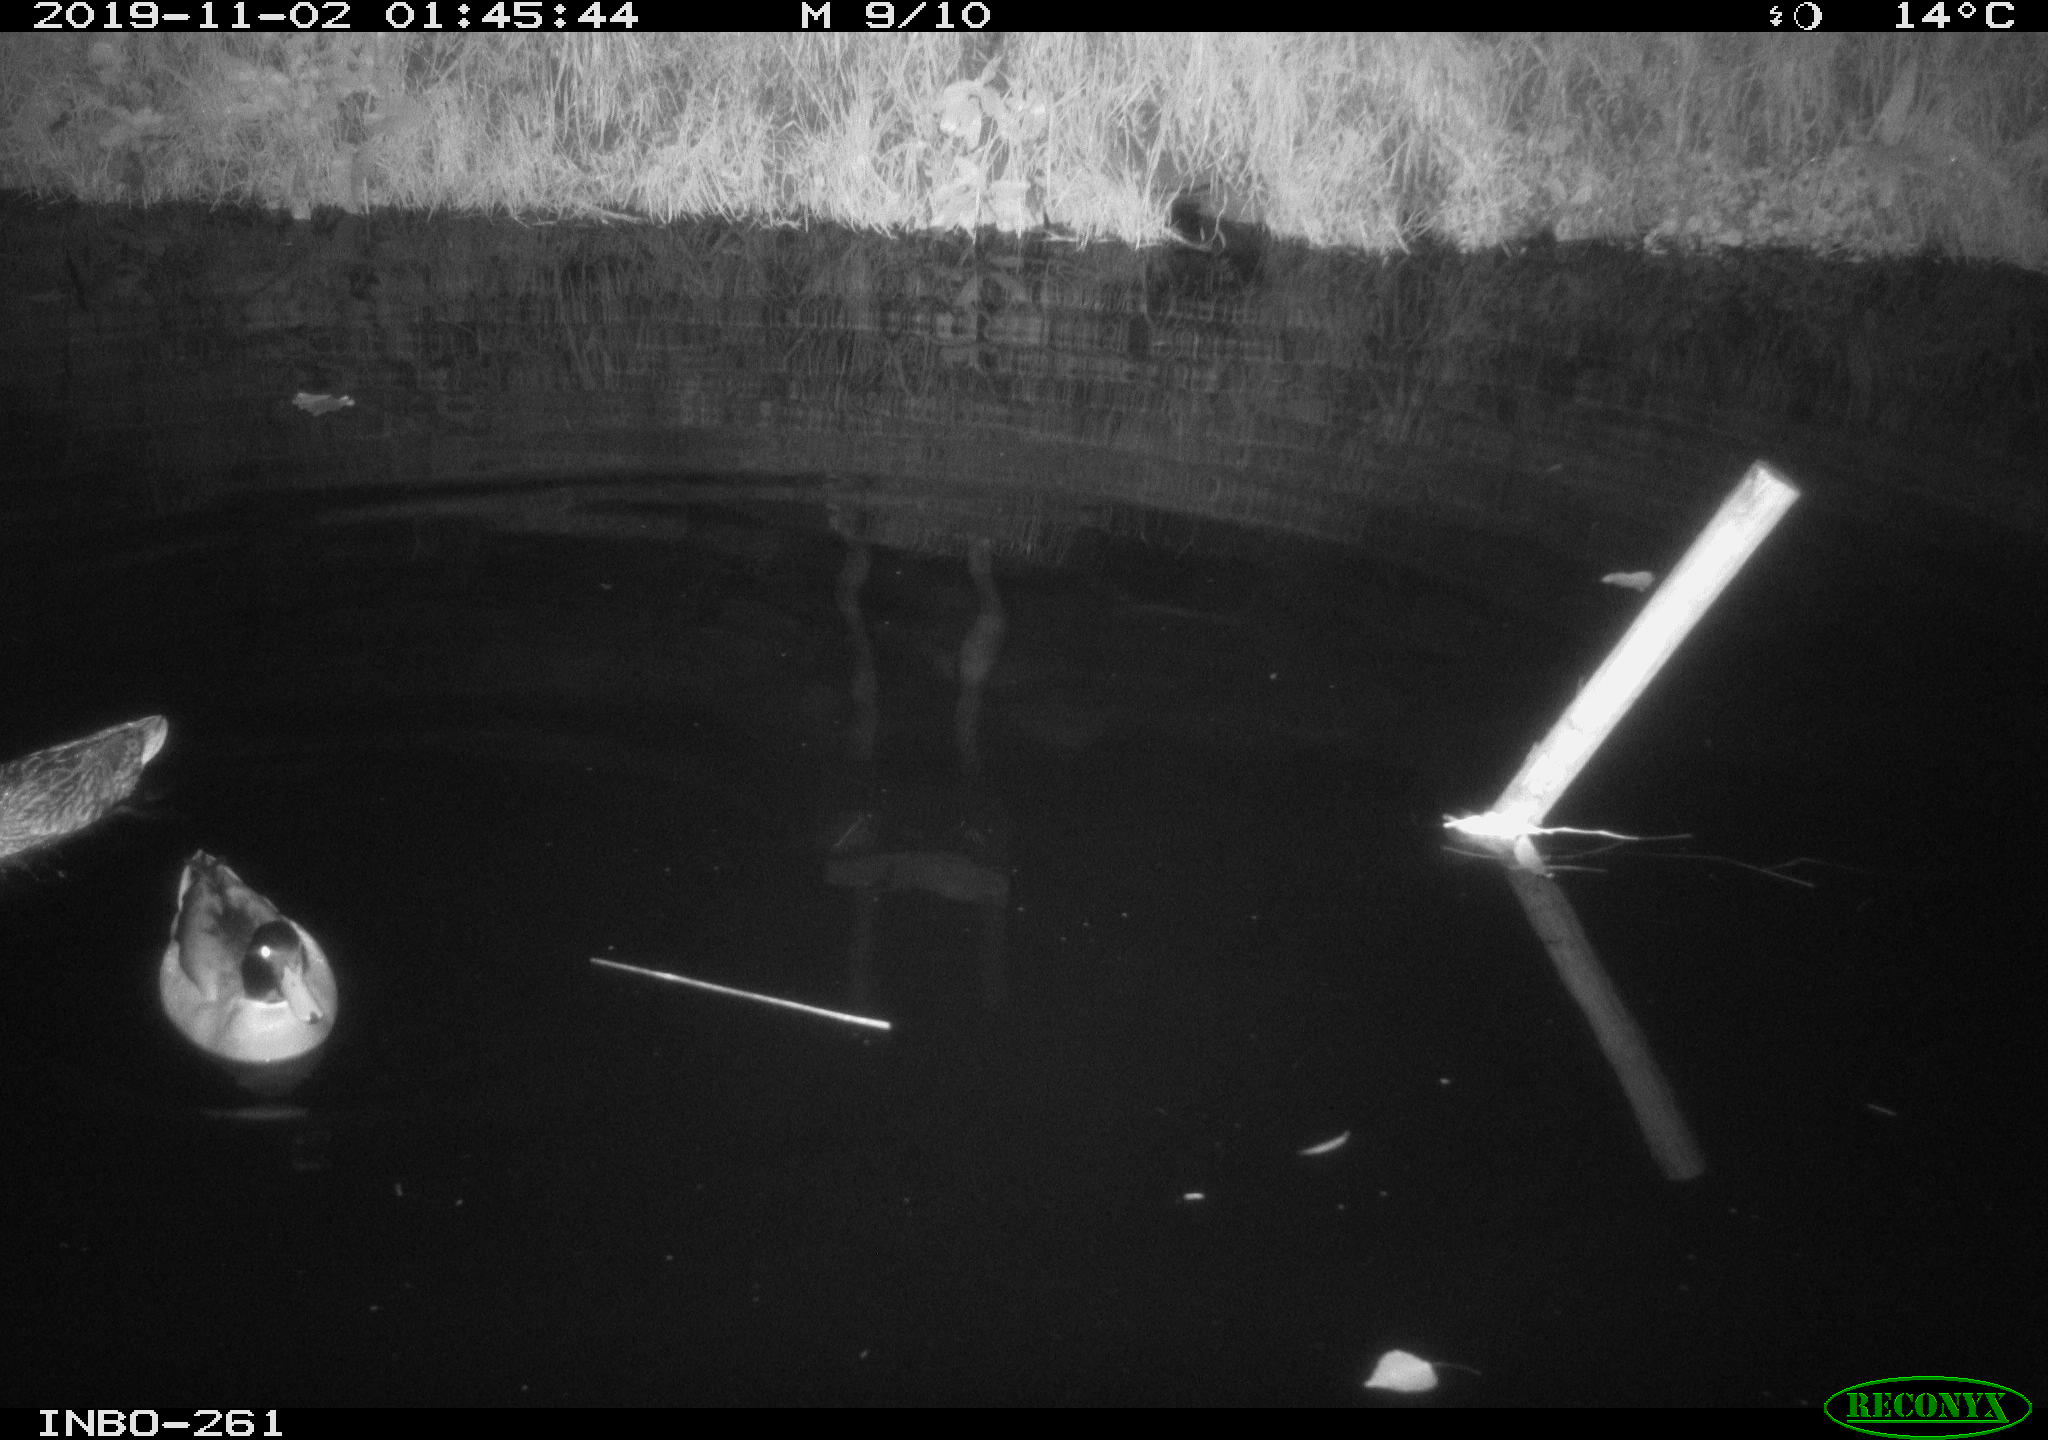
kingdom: Animalia
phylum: Chordata
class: Aves
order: Anseriformes
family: Anatidae
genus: Anas
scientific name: Anas platyrhynchos
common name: Mallard
